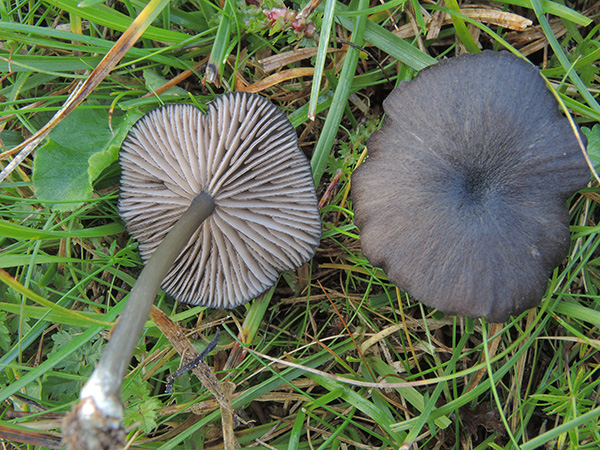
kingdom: Fungi
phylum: Basidiomycota
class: Agaricomycetes
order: Agaricales
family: Entolomataceae
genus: Entoloma
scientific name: Entoloma
